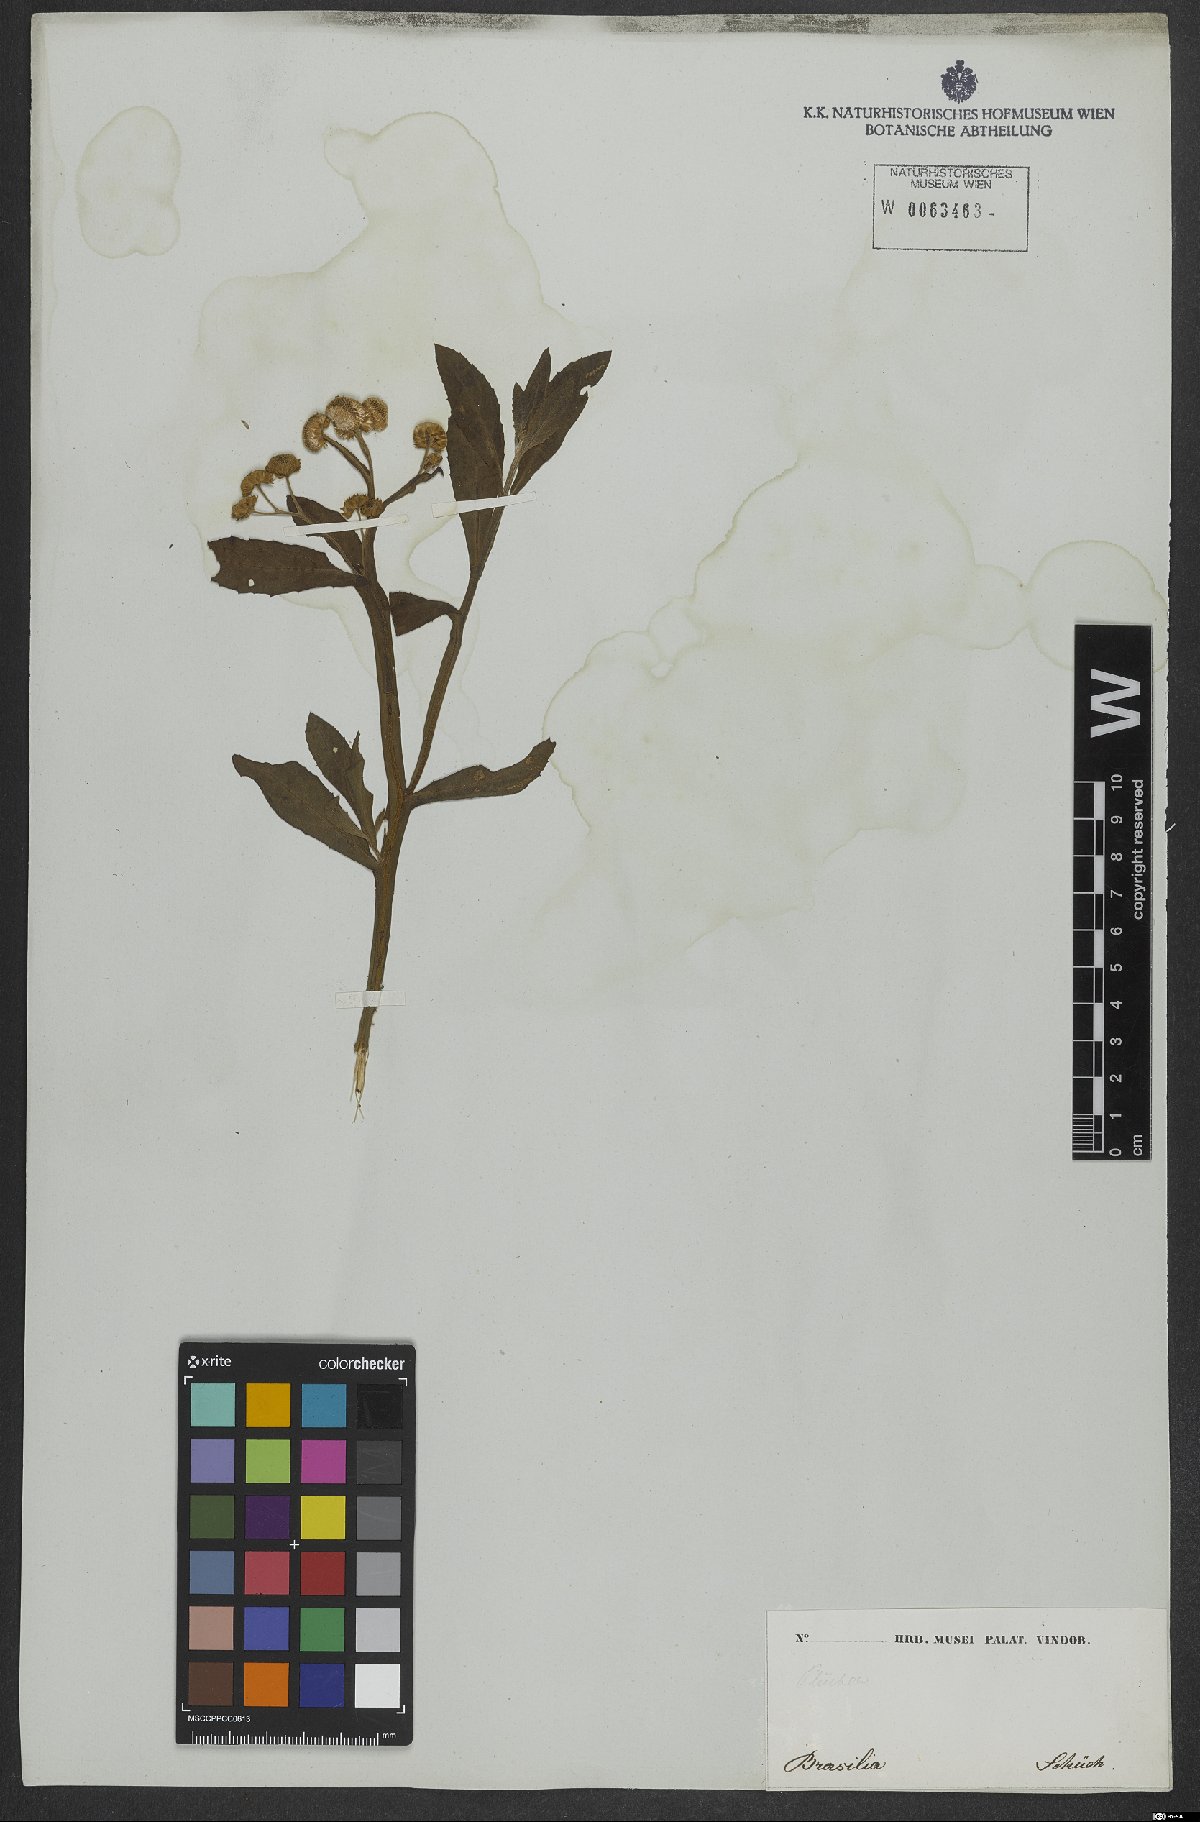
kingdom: Plantae
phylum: Tracheophyta
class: Magnoliopsida
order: Asterales
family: Asteraceae
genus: Pluchea
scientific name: Pluchea sagittalis
